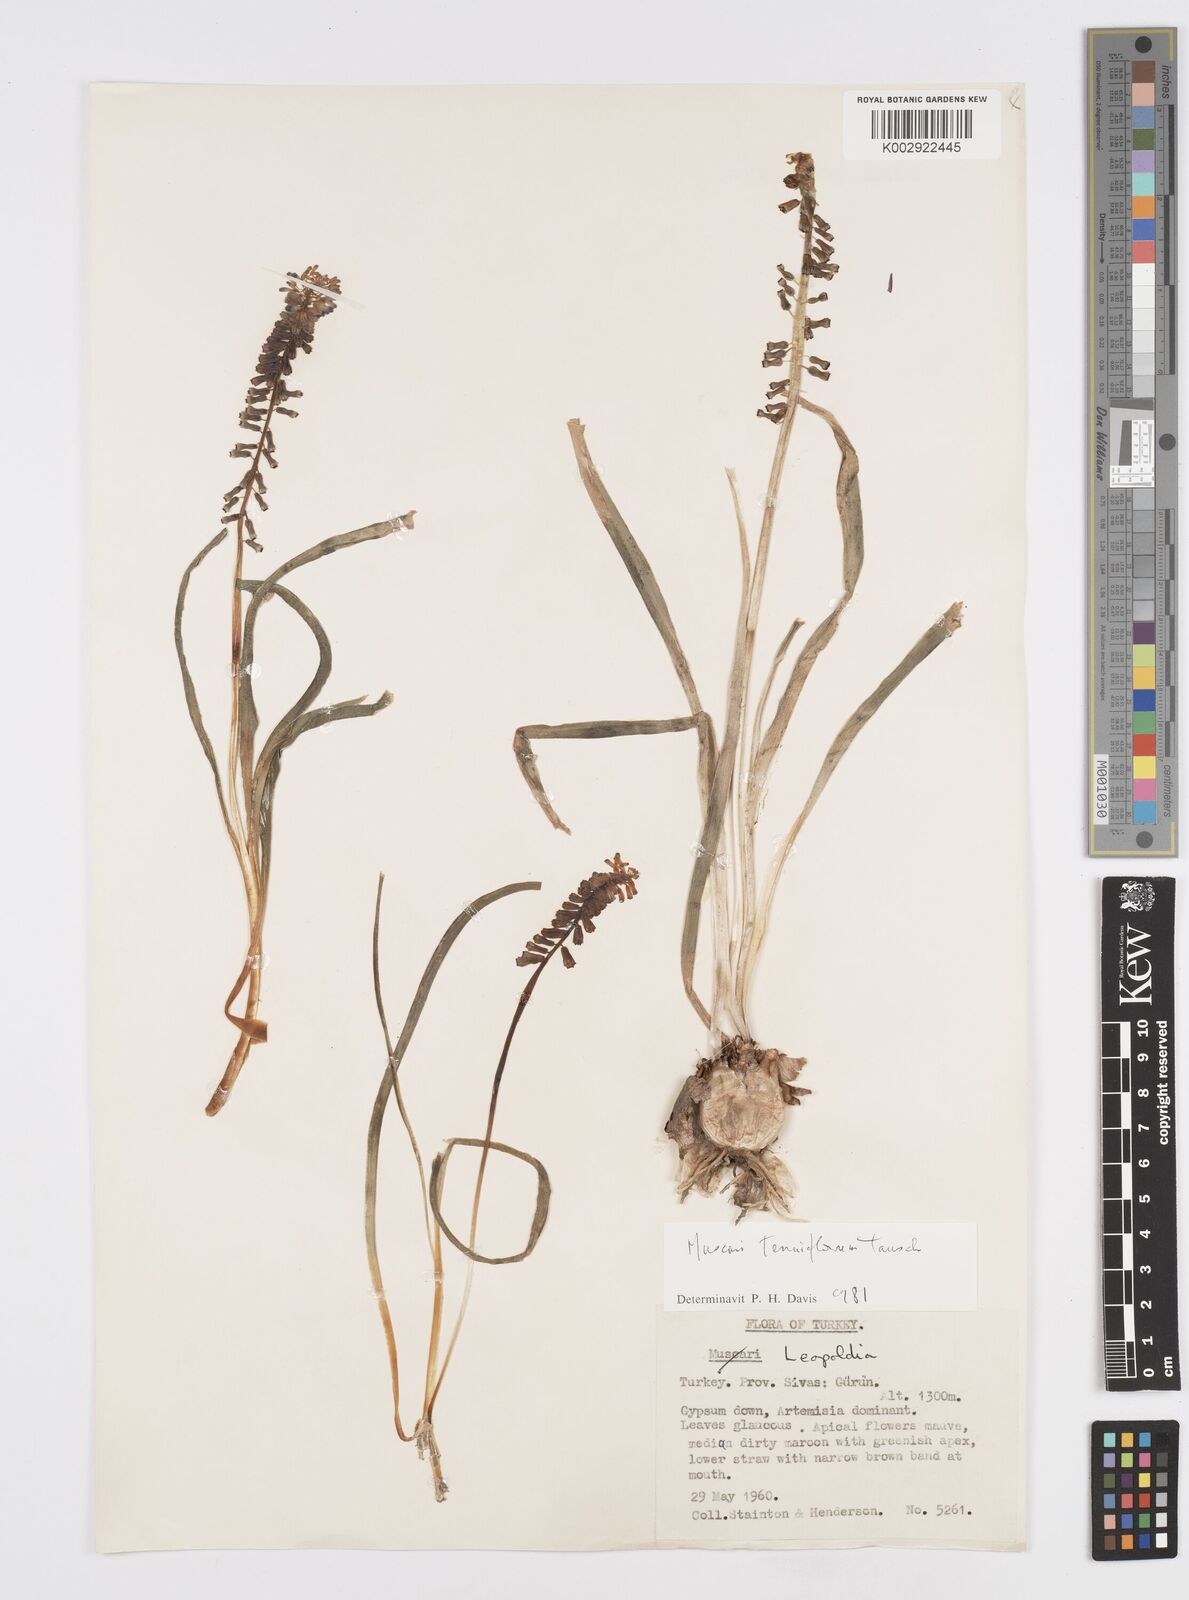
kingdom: Plantae
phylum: Tracheophyta
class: Liliopsida
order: Asparagales
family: Asparagaceae
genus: Muscari
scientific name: Muscari tenuiflorum
